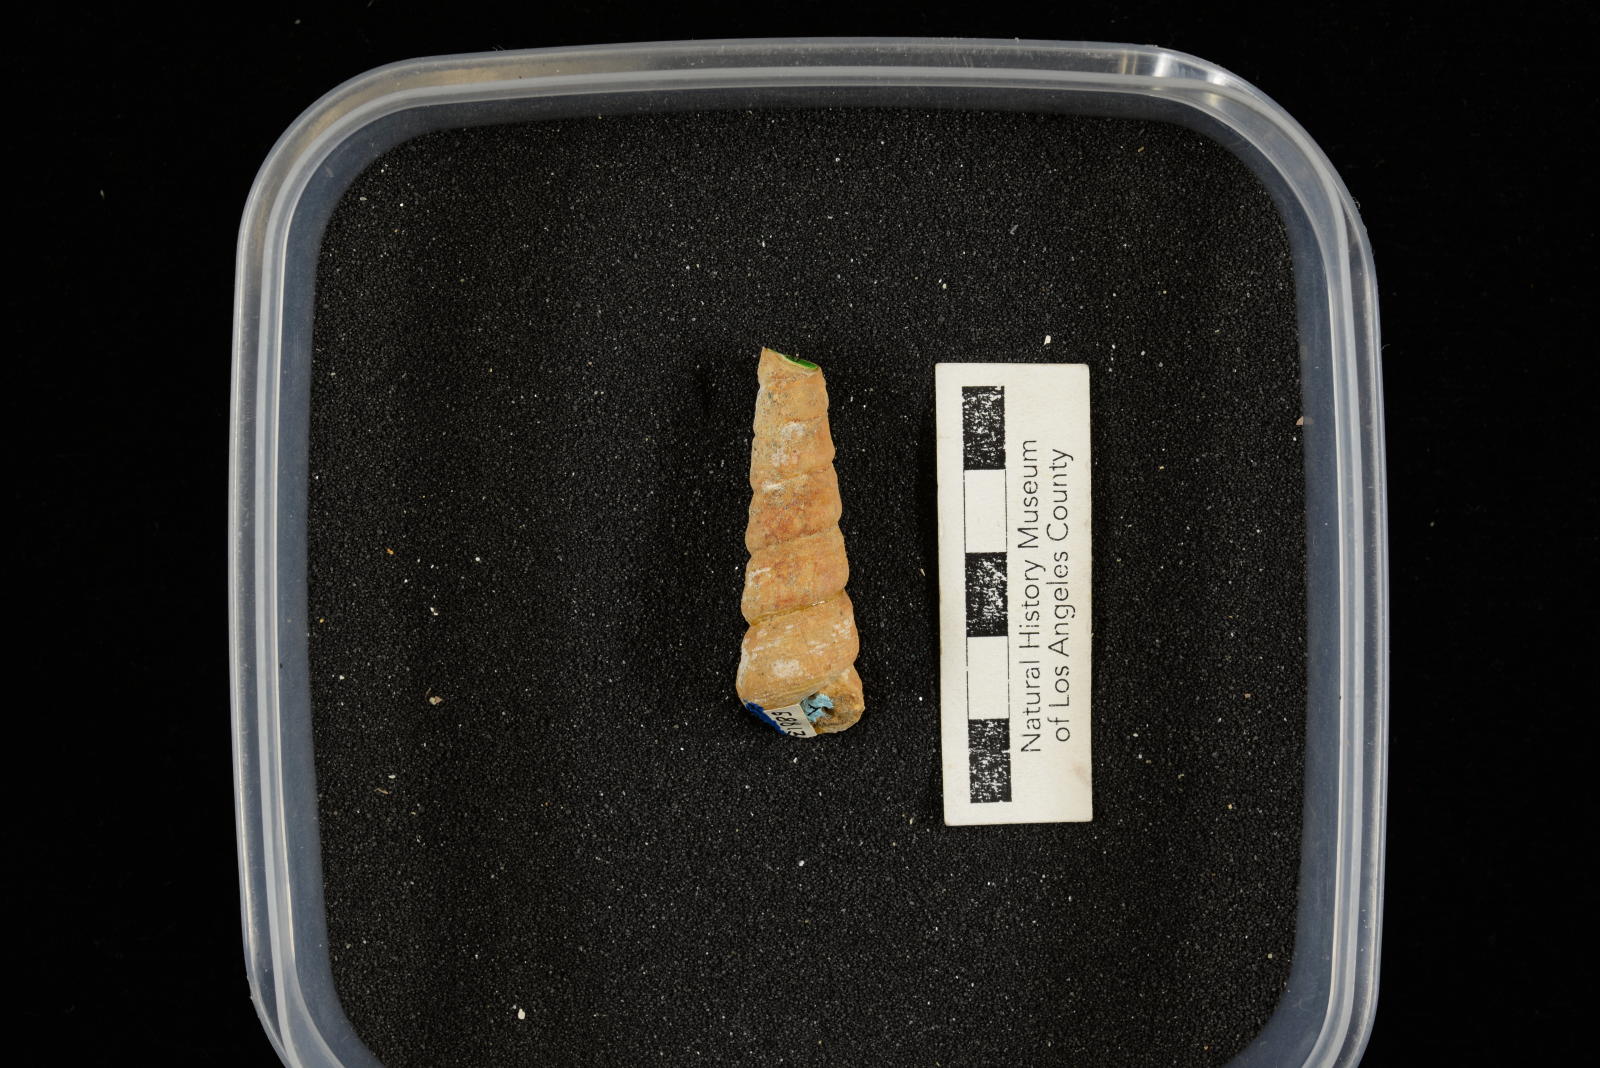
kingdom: Animalia
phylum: Mollusca
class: Gastropoda
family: Turritellidae
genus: Turritella
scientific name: Turritella chaneyi
